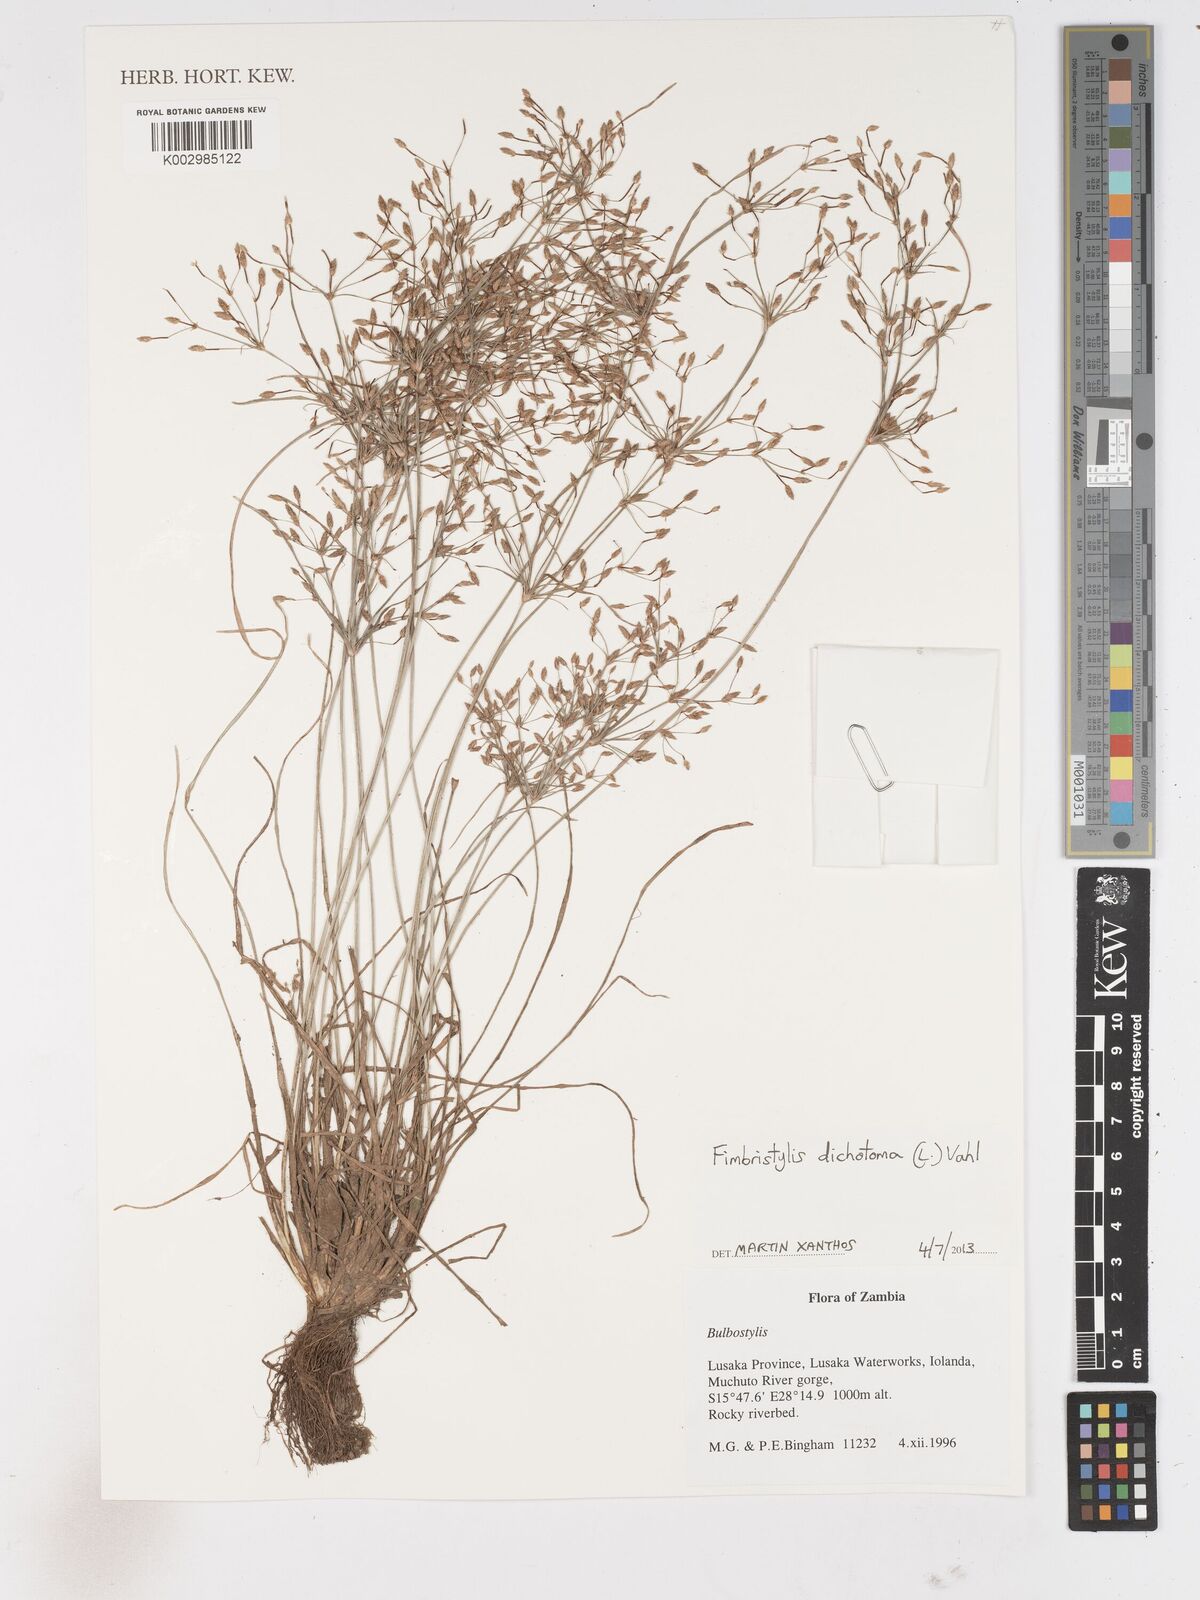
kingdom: Plantae
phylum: Tracheophyta
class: Liliopsida
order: Poales
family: Cyperaceae
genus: Fimbristylis
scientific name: Fimbristylis dichotoma
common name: Forked fimbry
